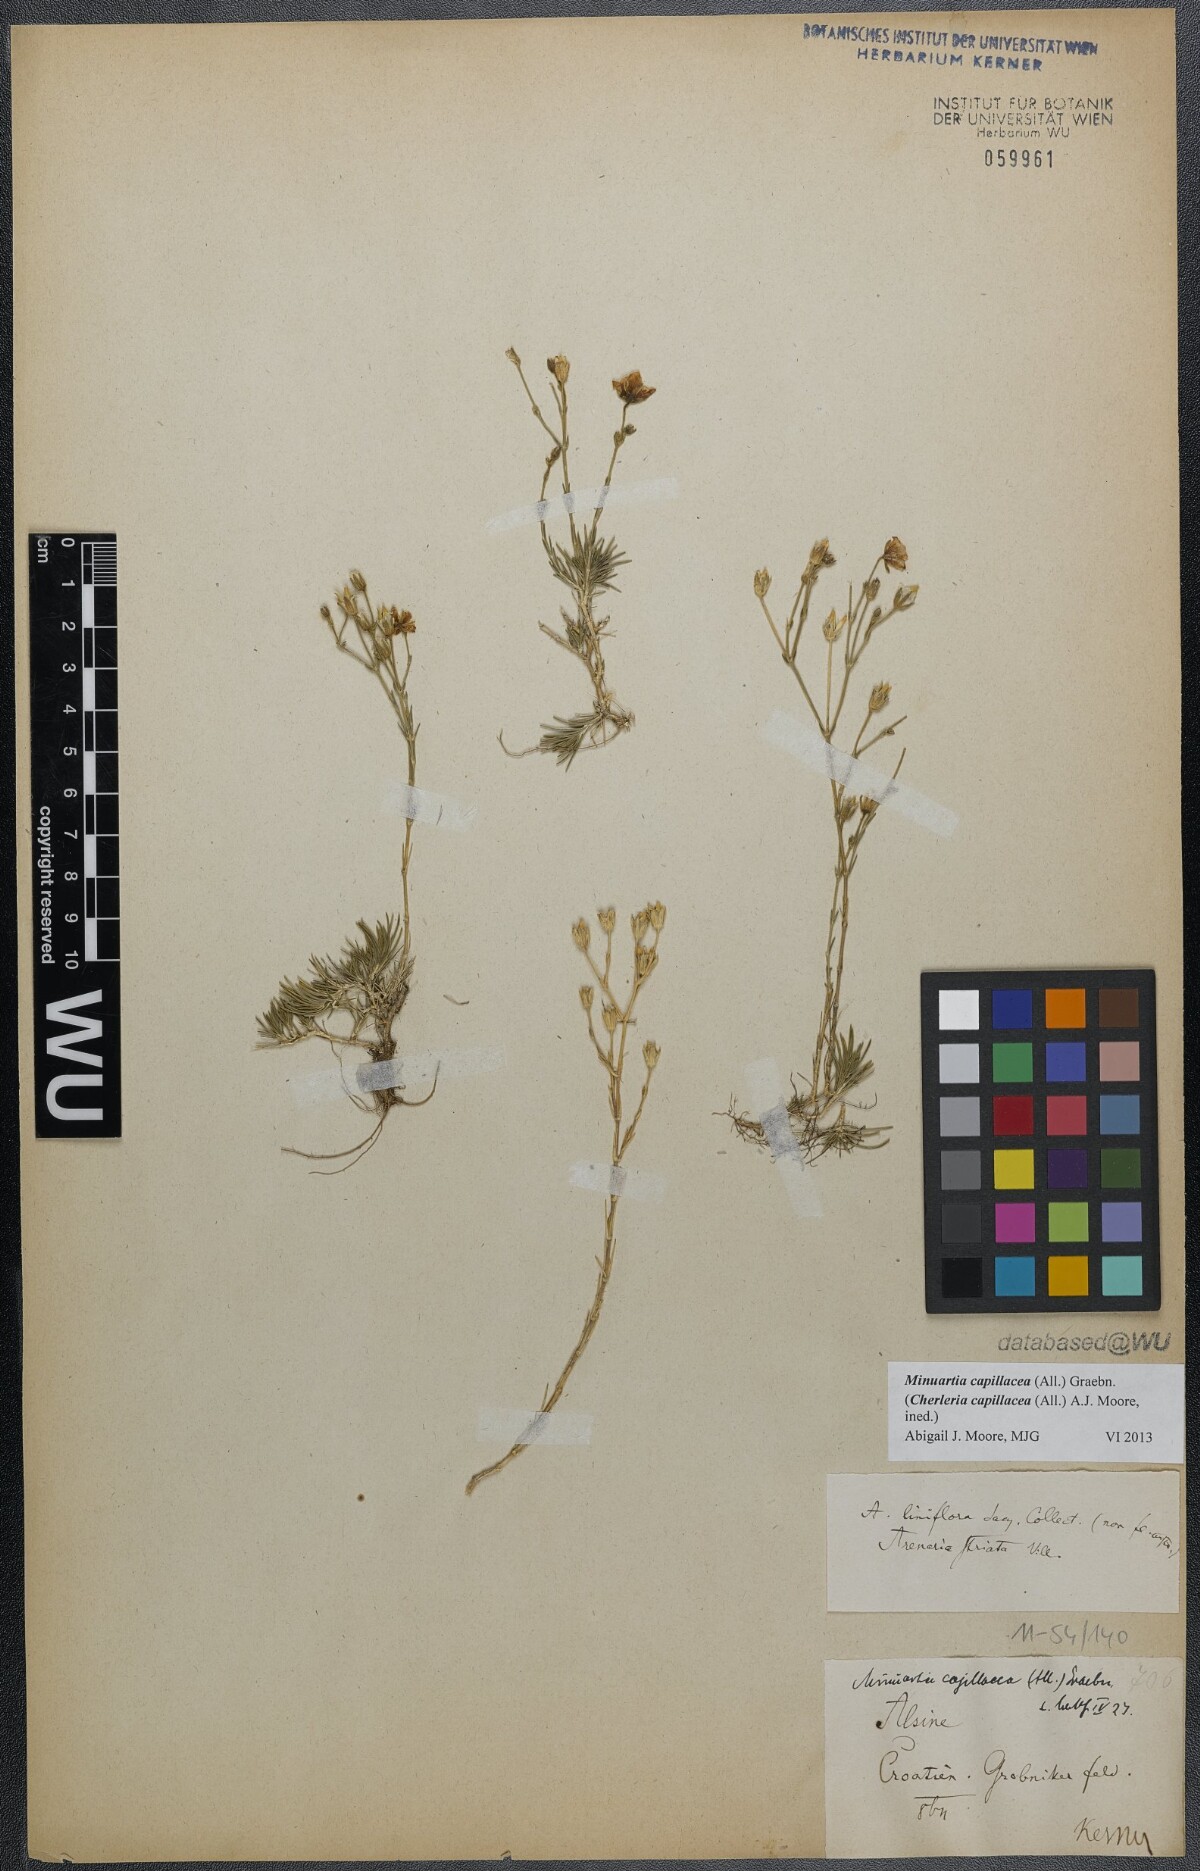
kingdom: Plantae
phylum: Tracheophyta
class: Magnoliopsida
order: Caryophyllales
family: Caryophyllaceae
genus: Cherleria
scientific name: Cherleria capillacea
